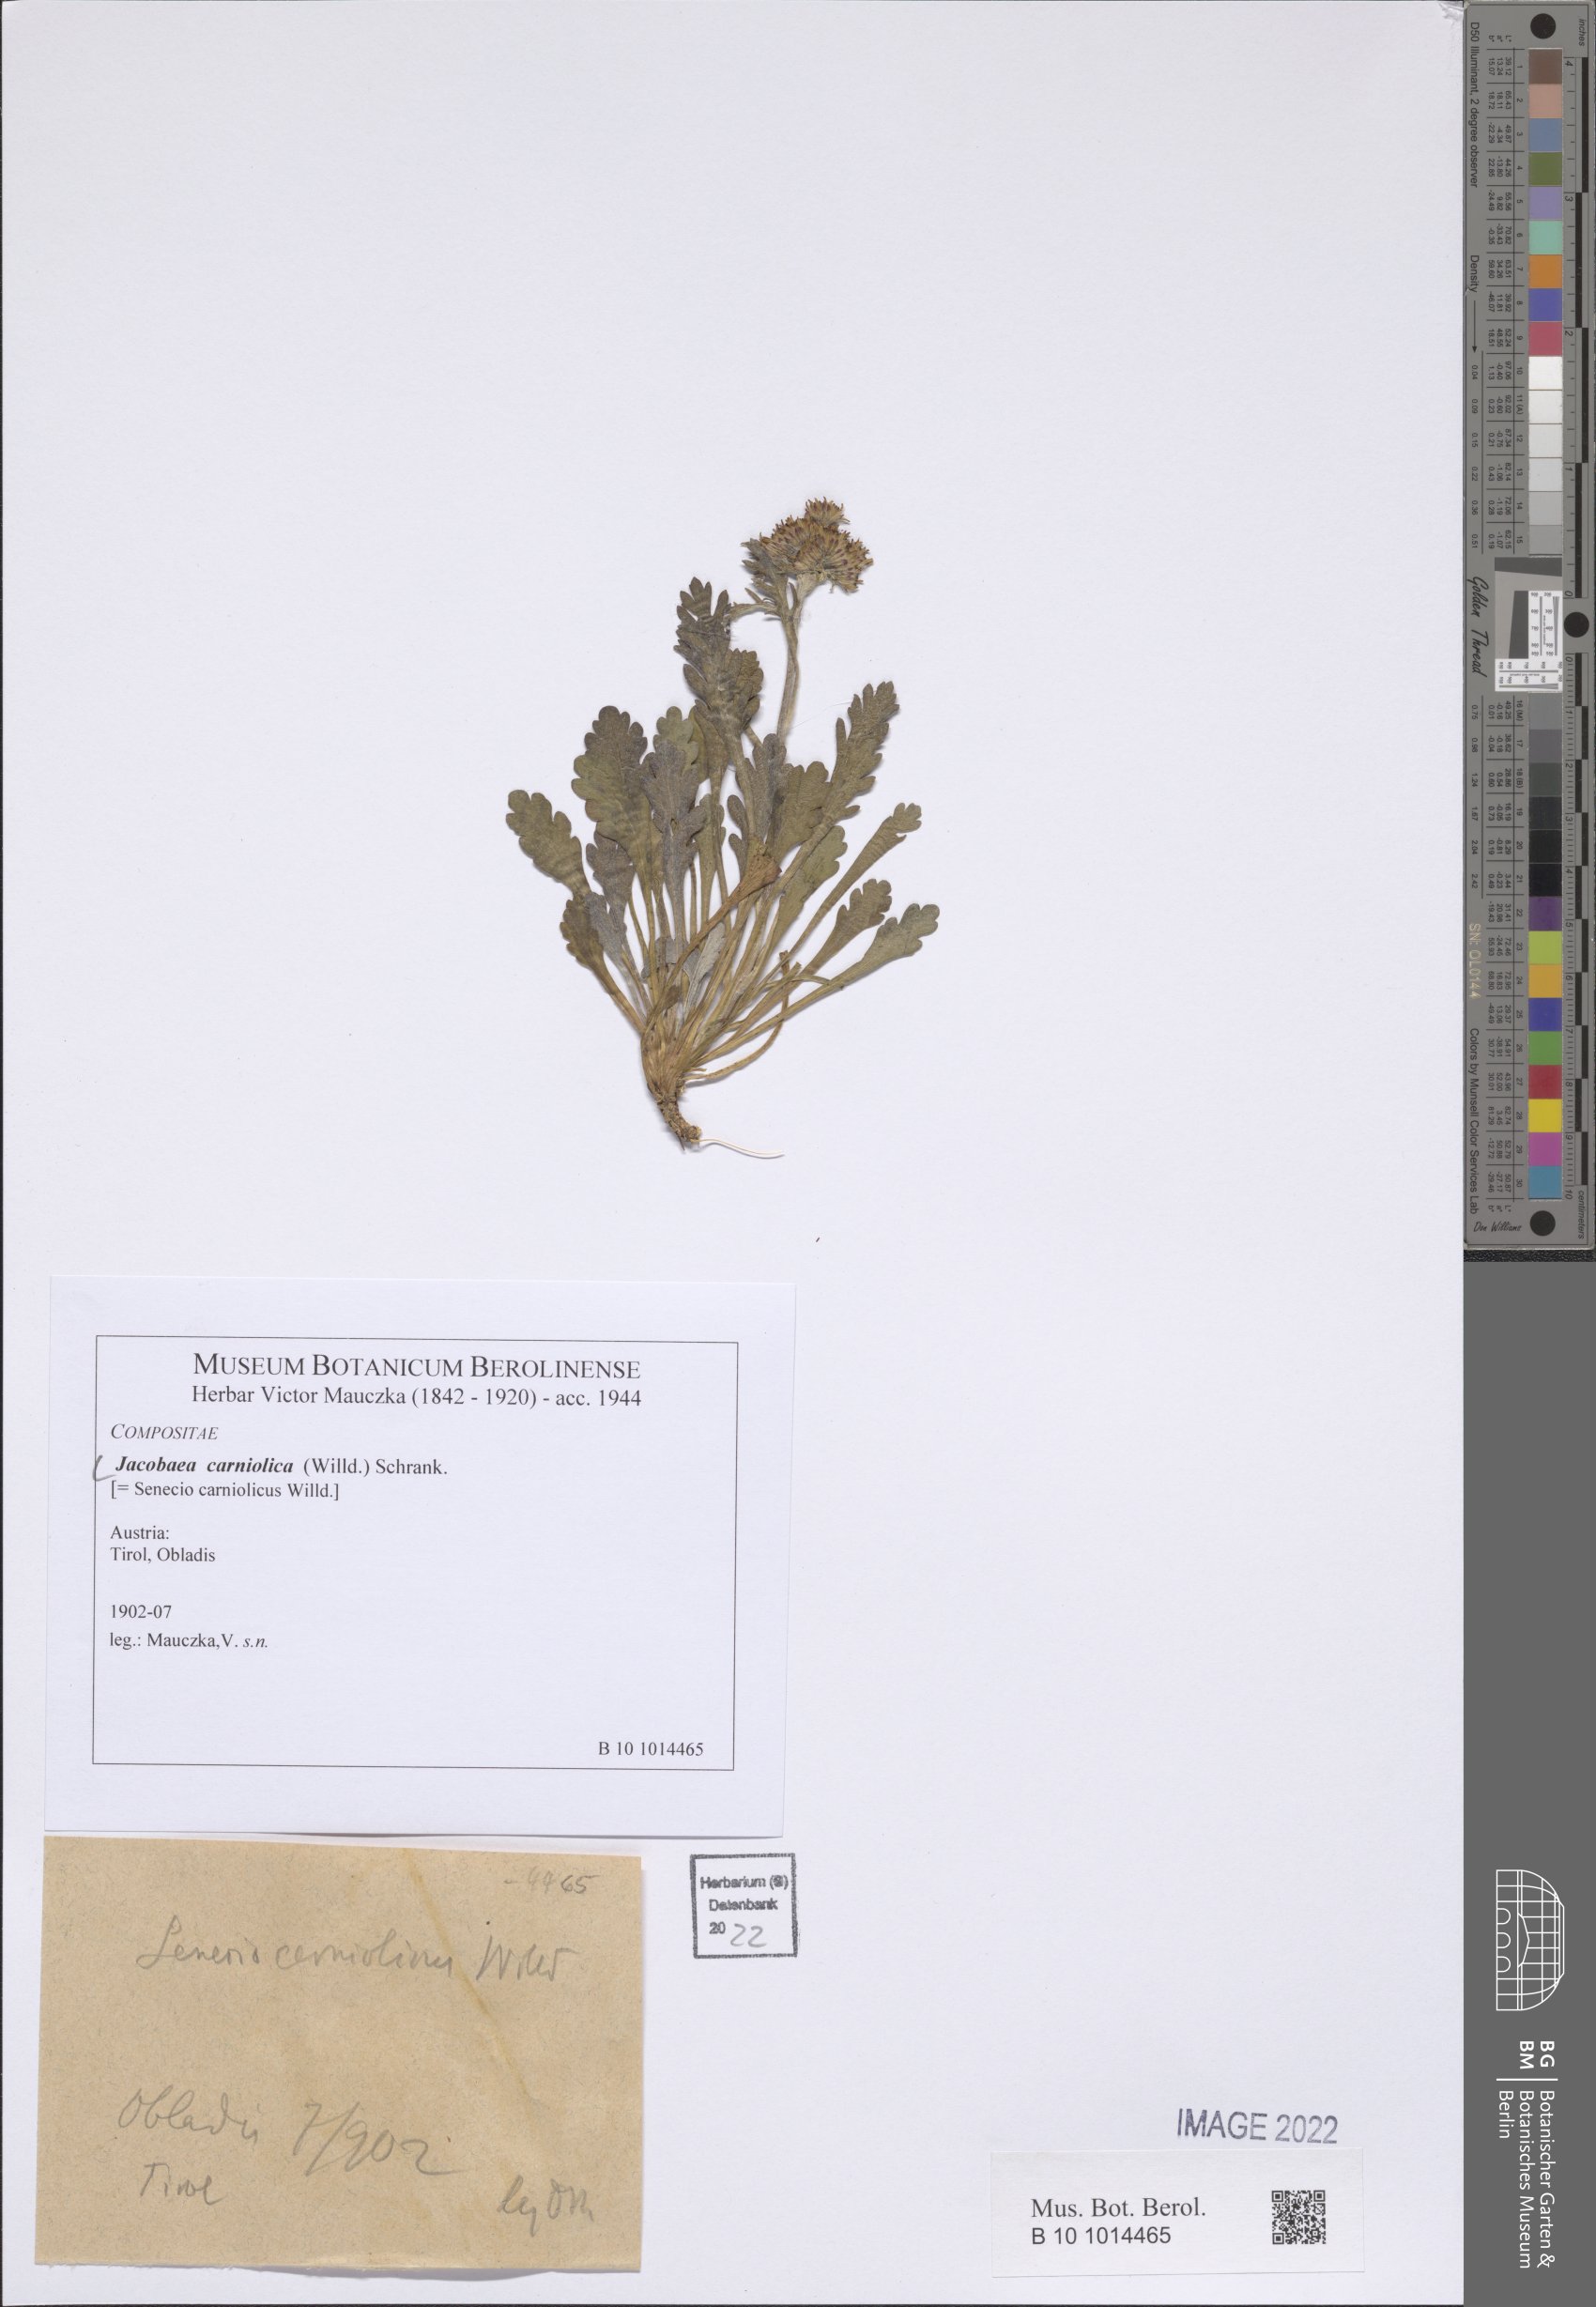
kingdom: Plantae
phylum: Tracheophyta
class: Magnoliopsida
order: Asterales
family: Asteraceae
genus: Jacobaea
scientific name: Jacobaea carniolica
